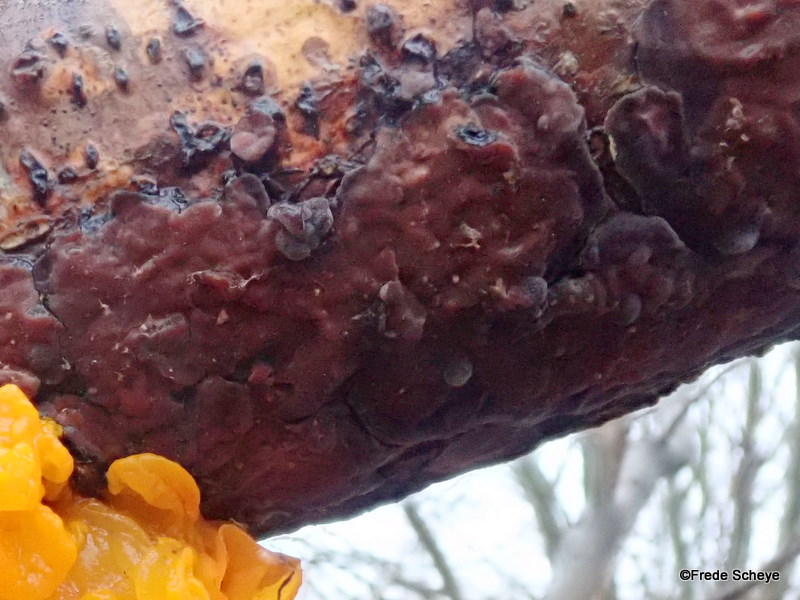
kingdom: Fungi
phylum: Basidiomycota
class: Agaricomycetes
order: Russulales
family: Peniophoraceae
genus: Peniophora
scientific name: Peniophora quercina
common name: ege-voksskind
